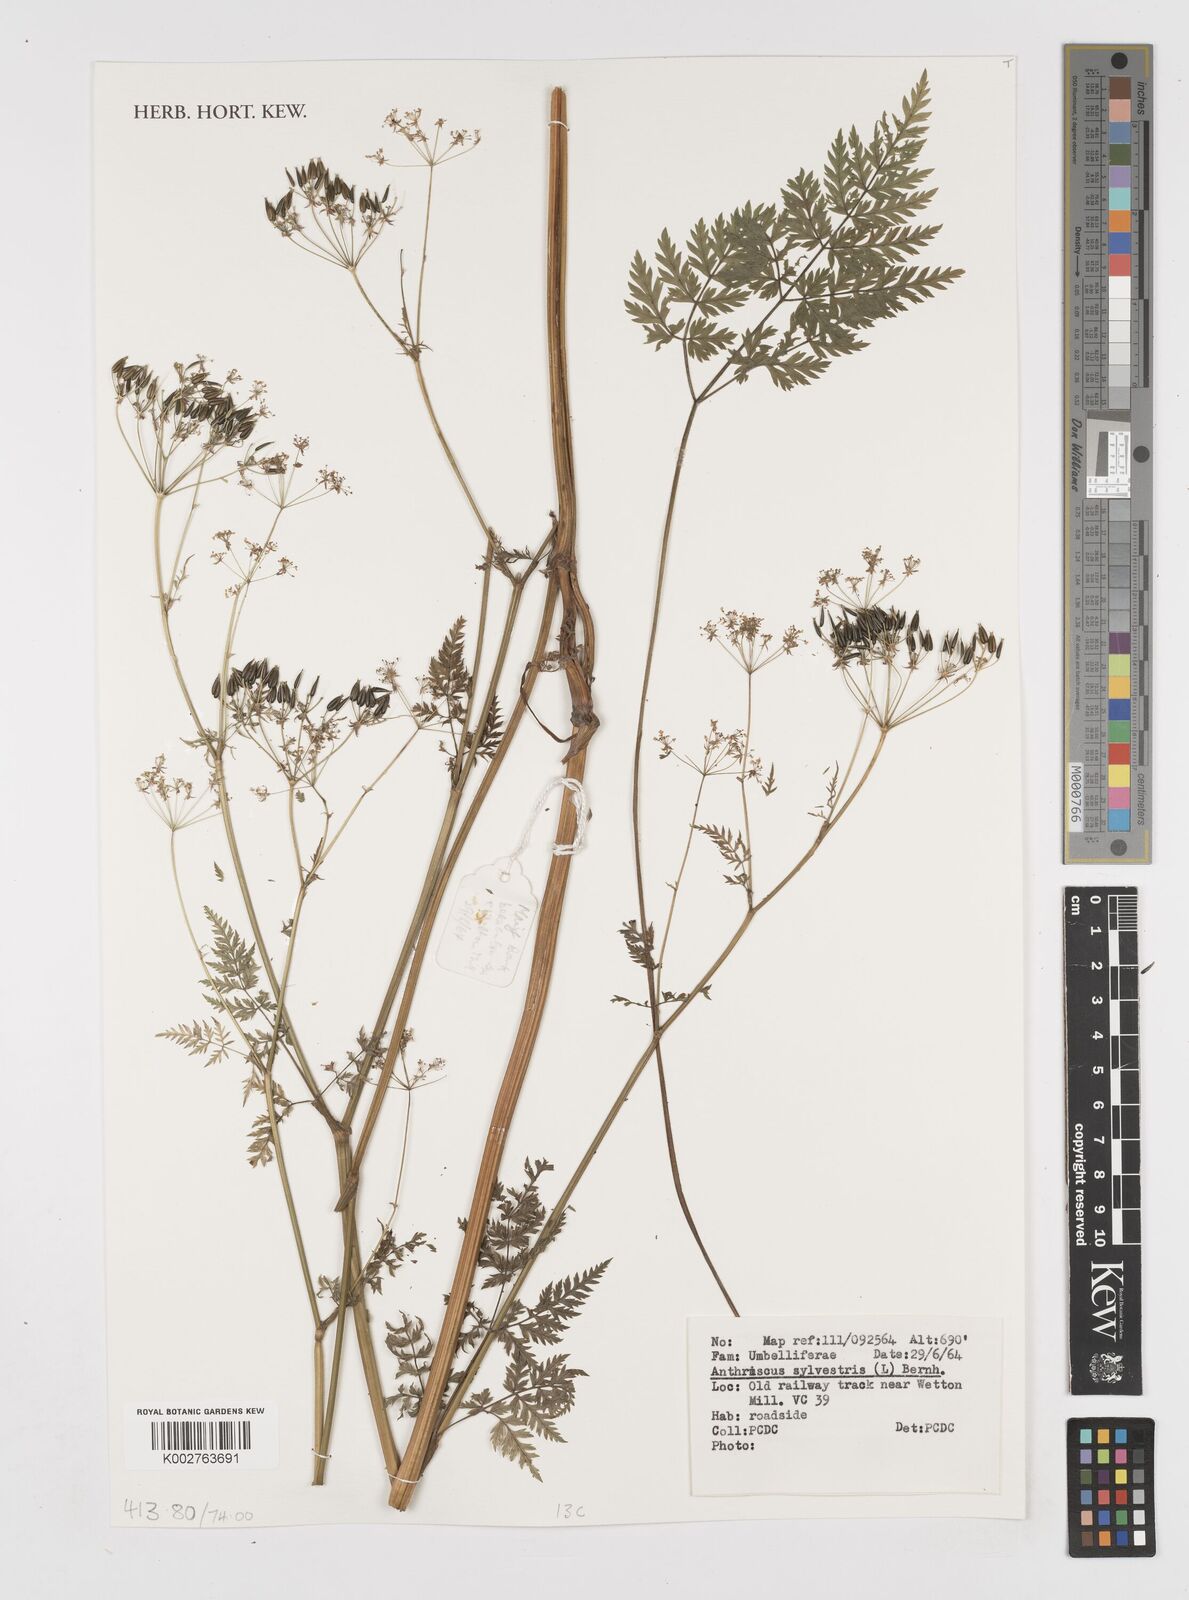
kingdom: Plantae
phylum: Tracheophyta
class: Magnoliopsida
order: Apiales
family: Apiaceae
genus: Anthriscus
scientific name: Anthriscus sylvestris
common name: Cow parsley
